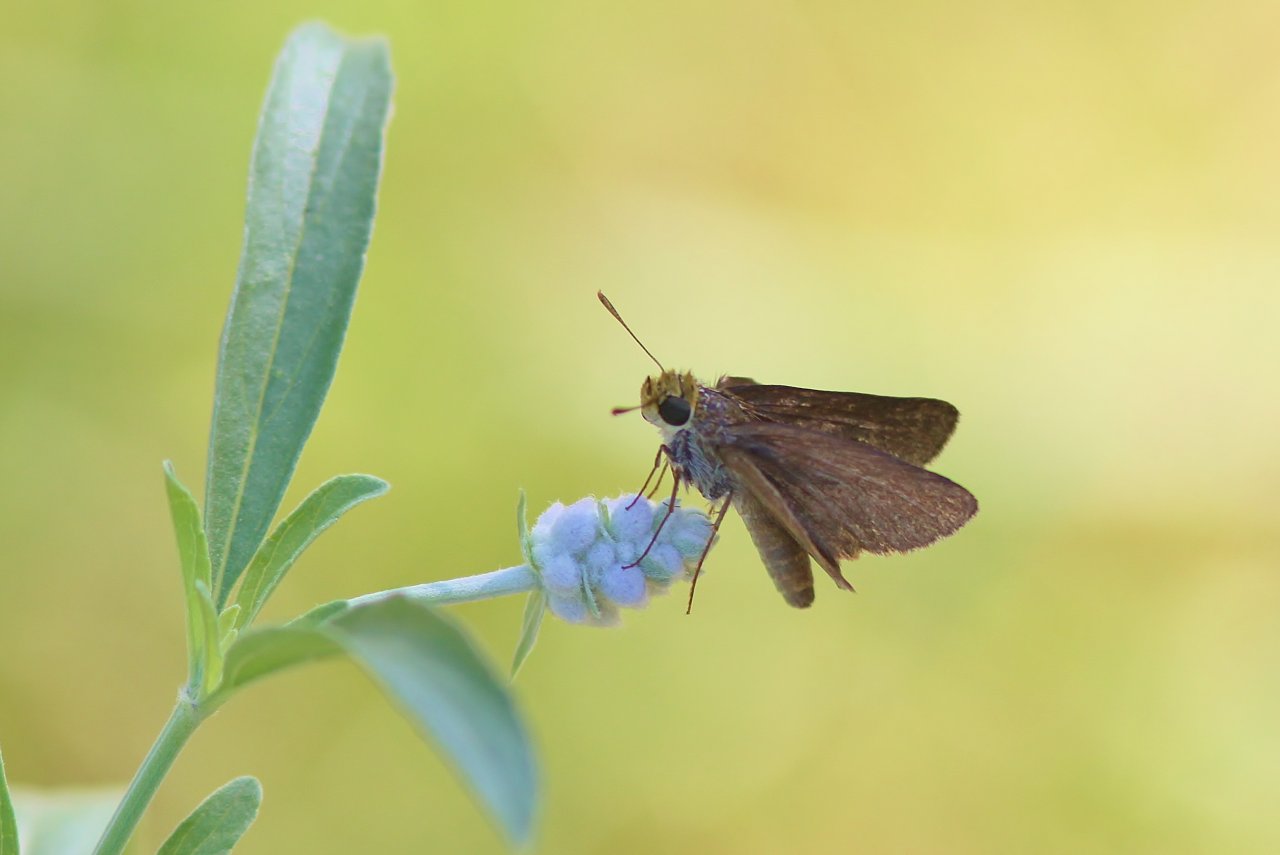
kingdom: Animalia
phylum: Arthropoda
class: Insecta
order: Lepidoptera
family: Hesperiidae
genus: Euphyes
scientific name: Euphyes vestris
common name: Dun Skipper
